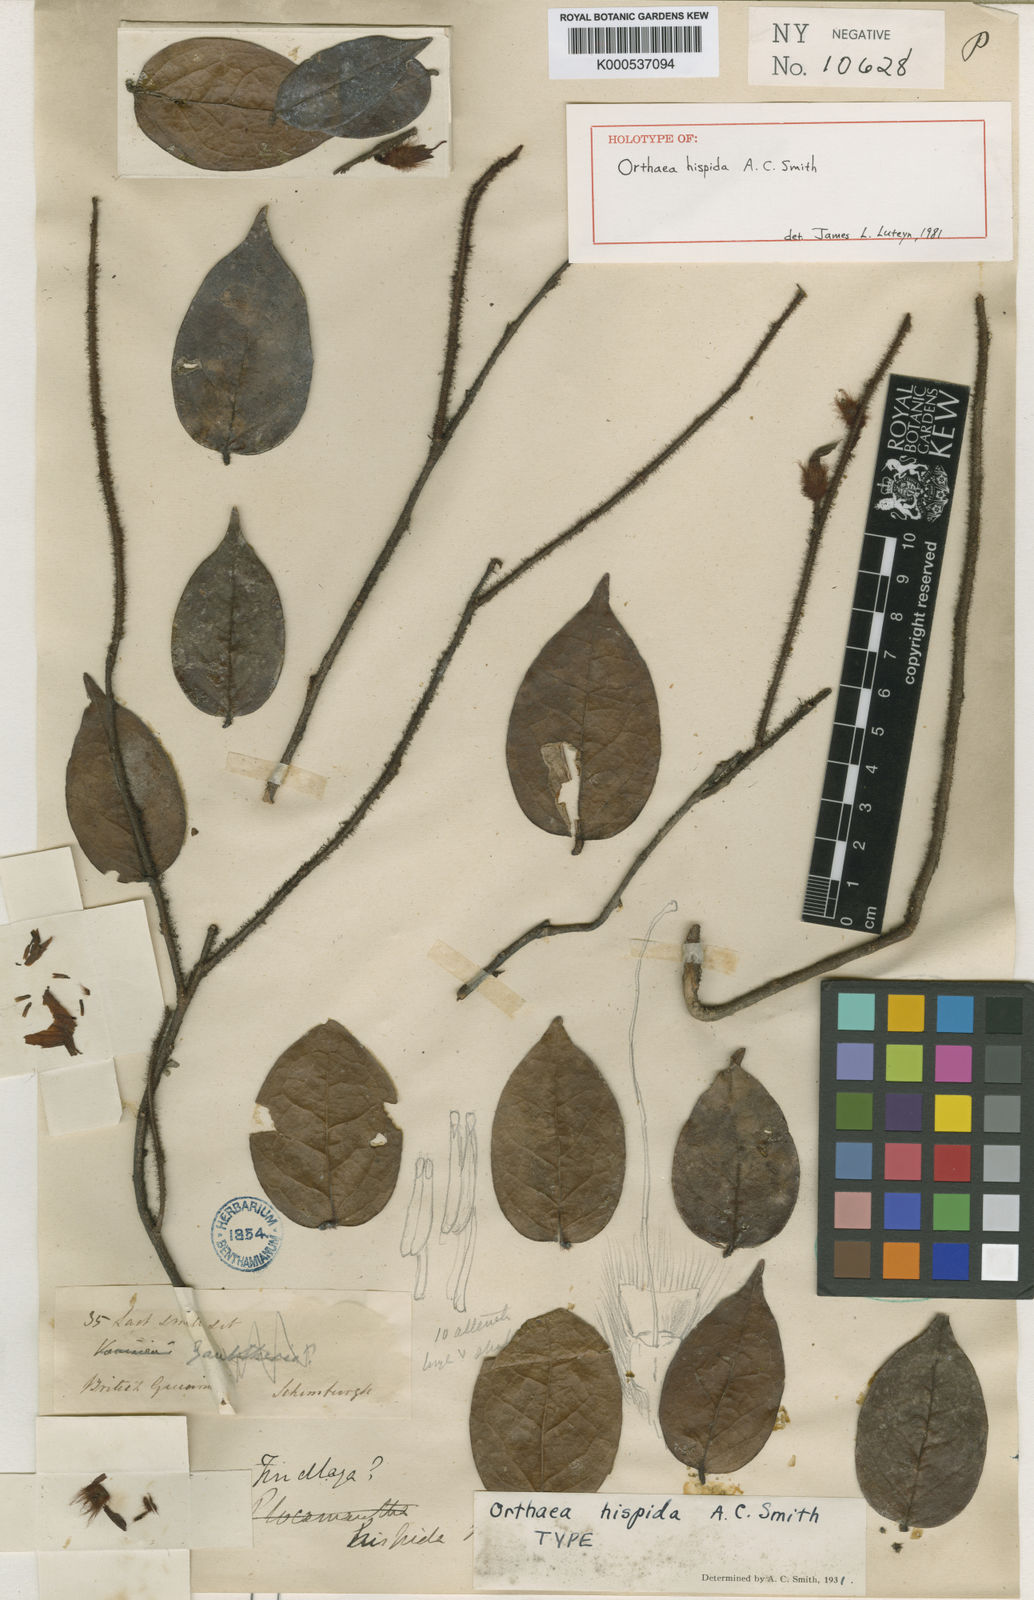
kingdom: Plantae
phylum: Tracheophyta
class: Magnoliopsida
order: Ericales
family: Ericaceae
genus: Orthaea
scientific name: Orthaea hispida
